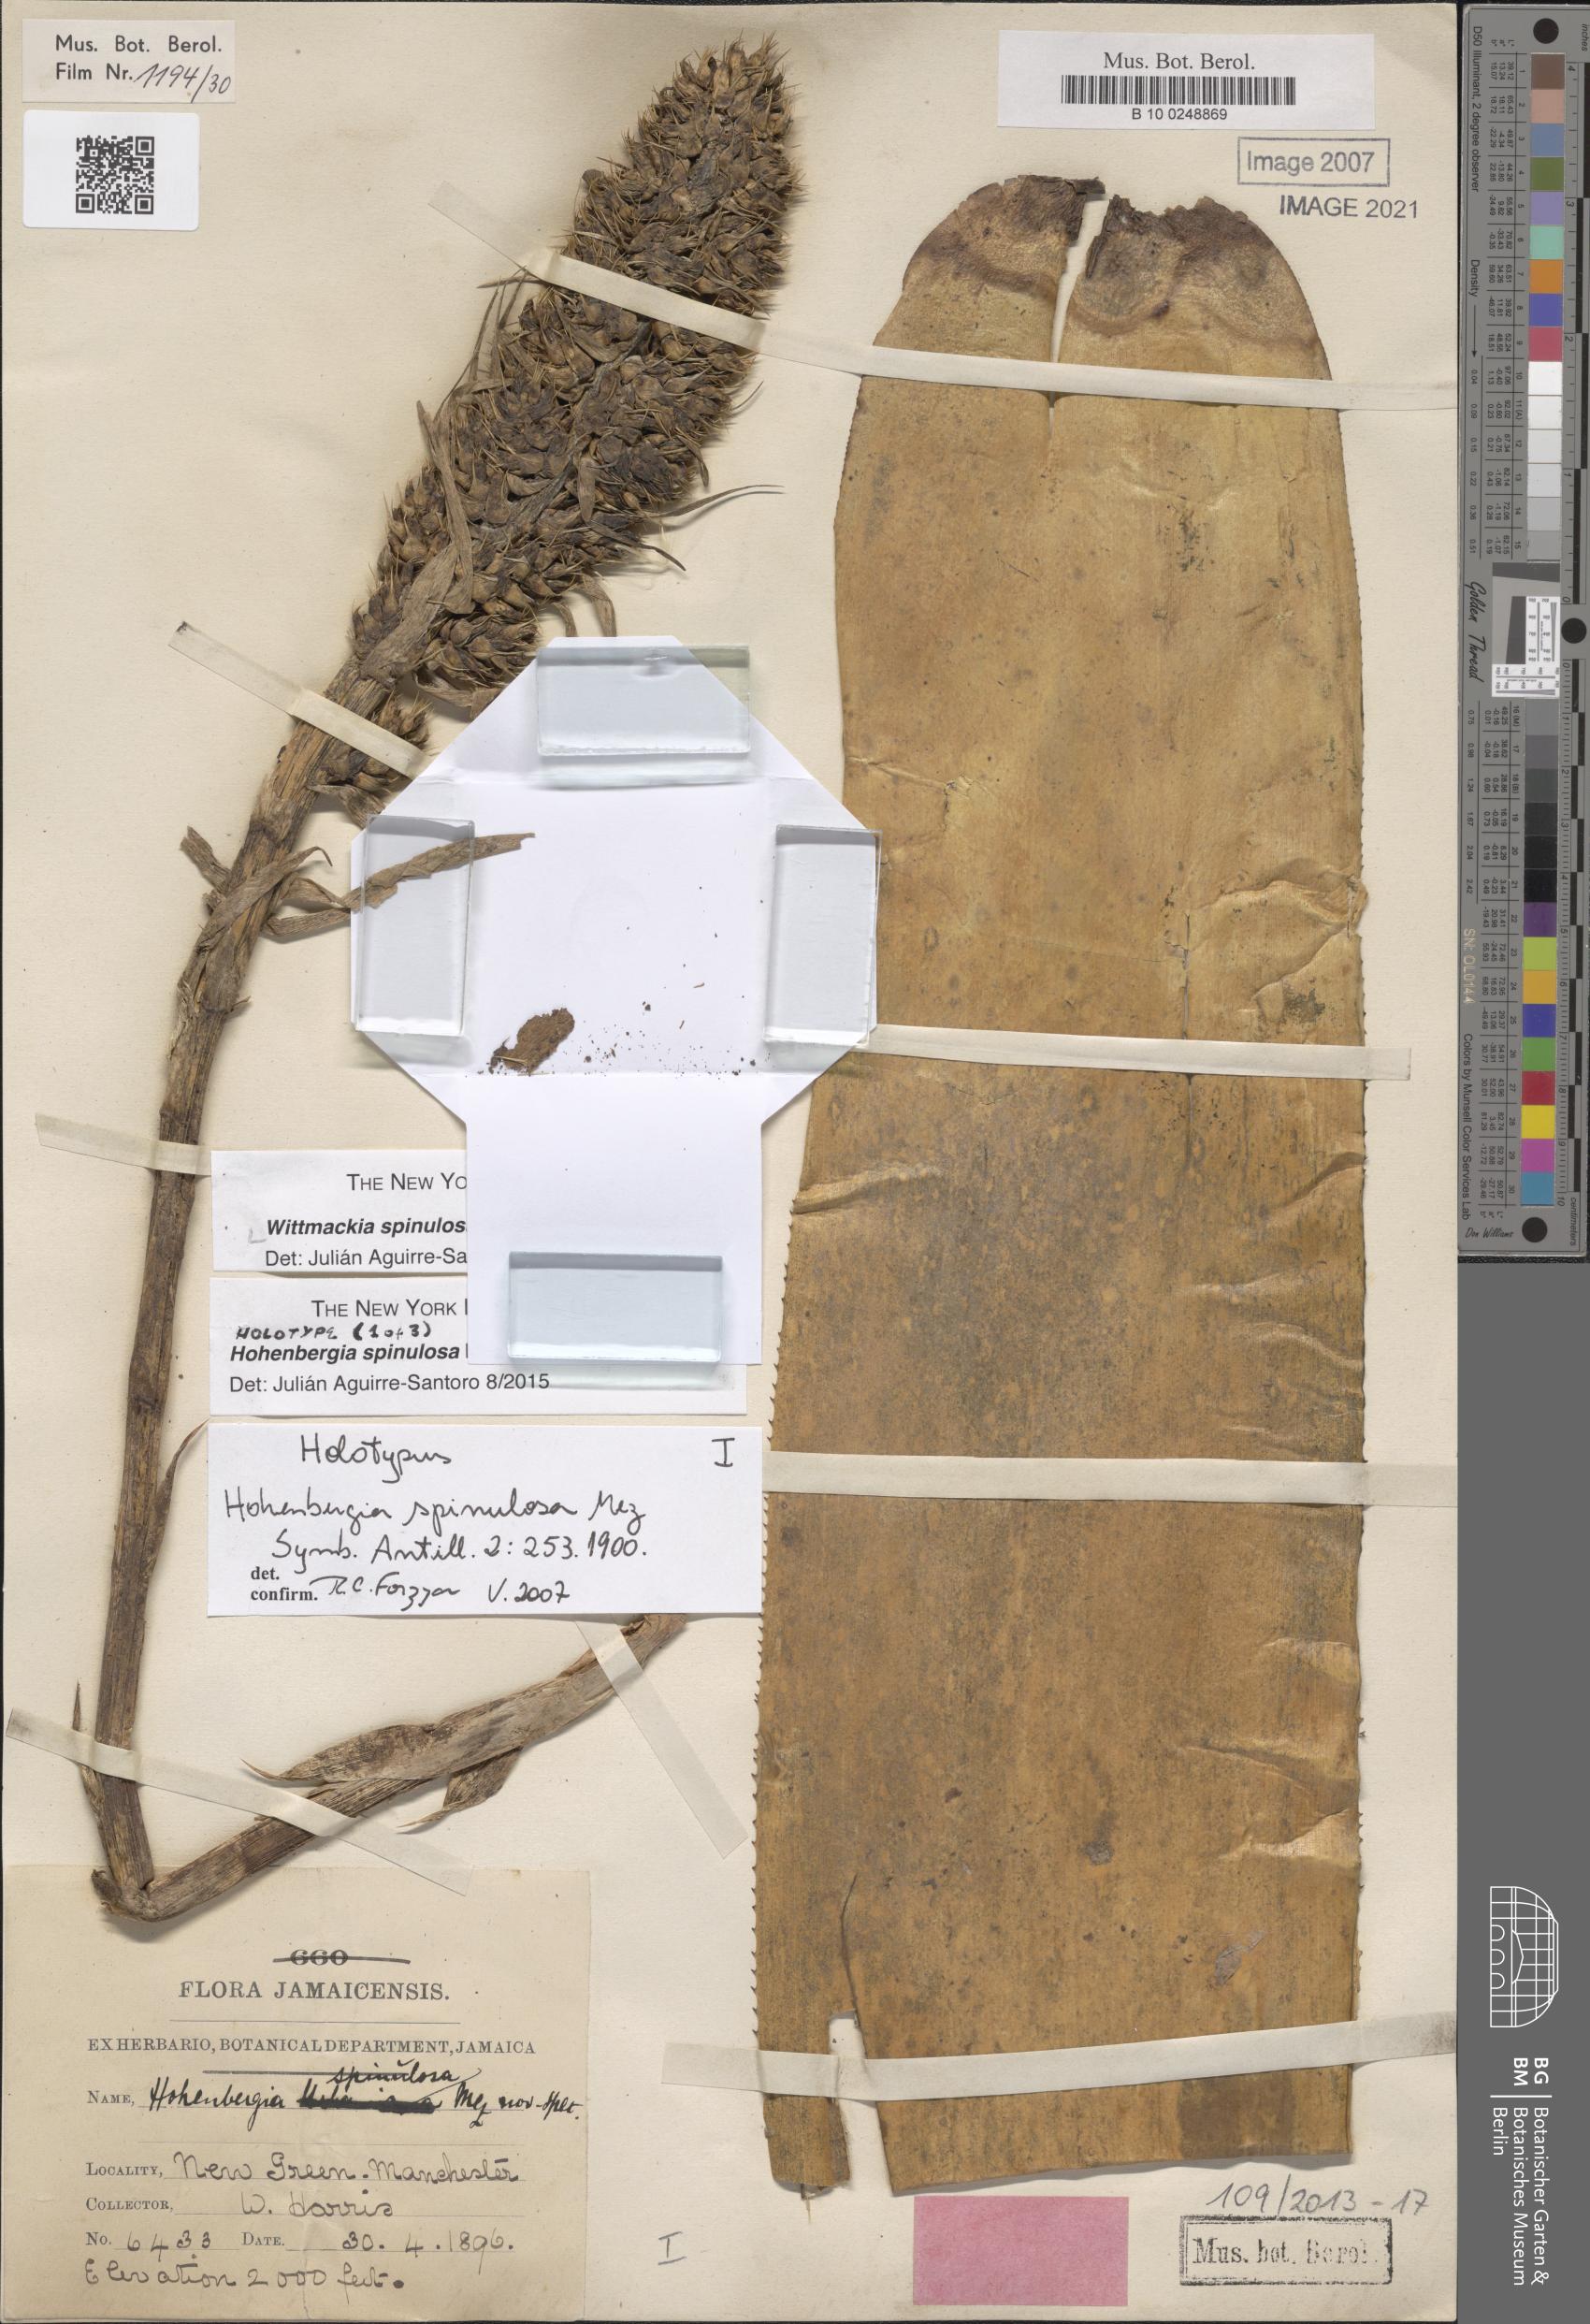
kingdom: Plantae
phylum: Tracheophyta
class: Liliopsida
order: Poales
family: Bromeliaceae
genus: Wittmackia
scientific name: Wittmackia spinulosa
